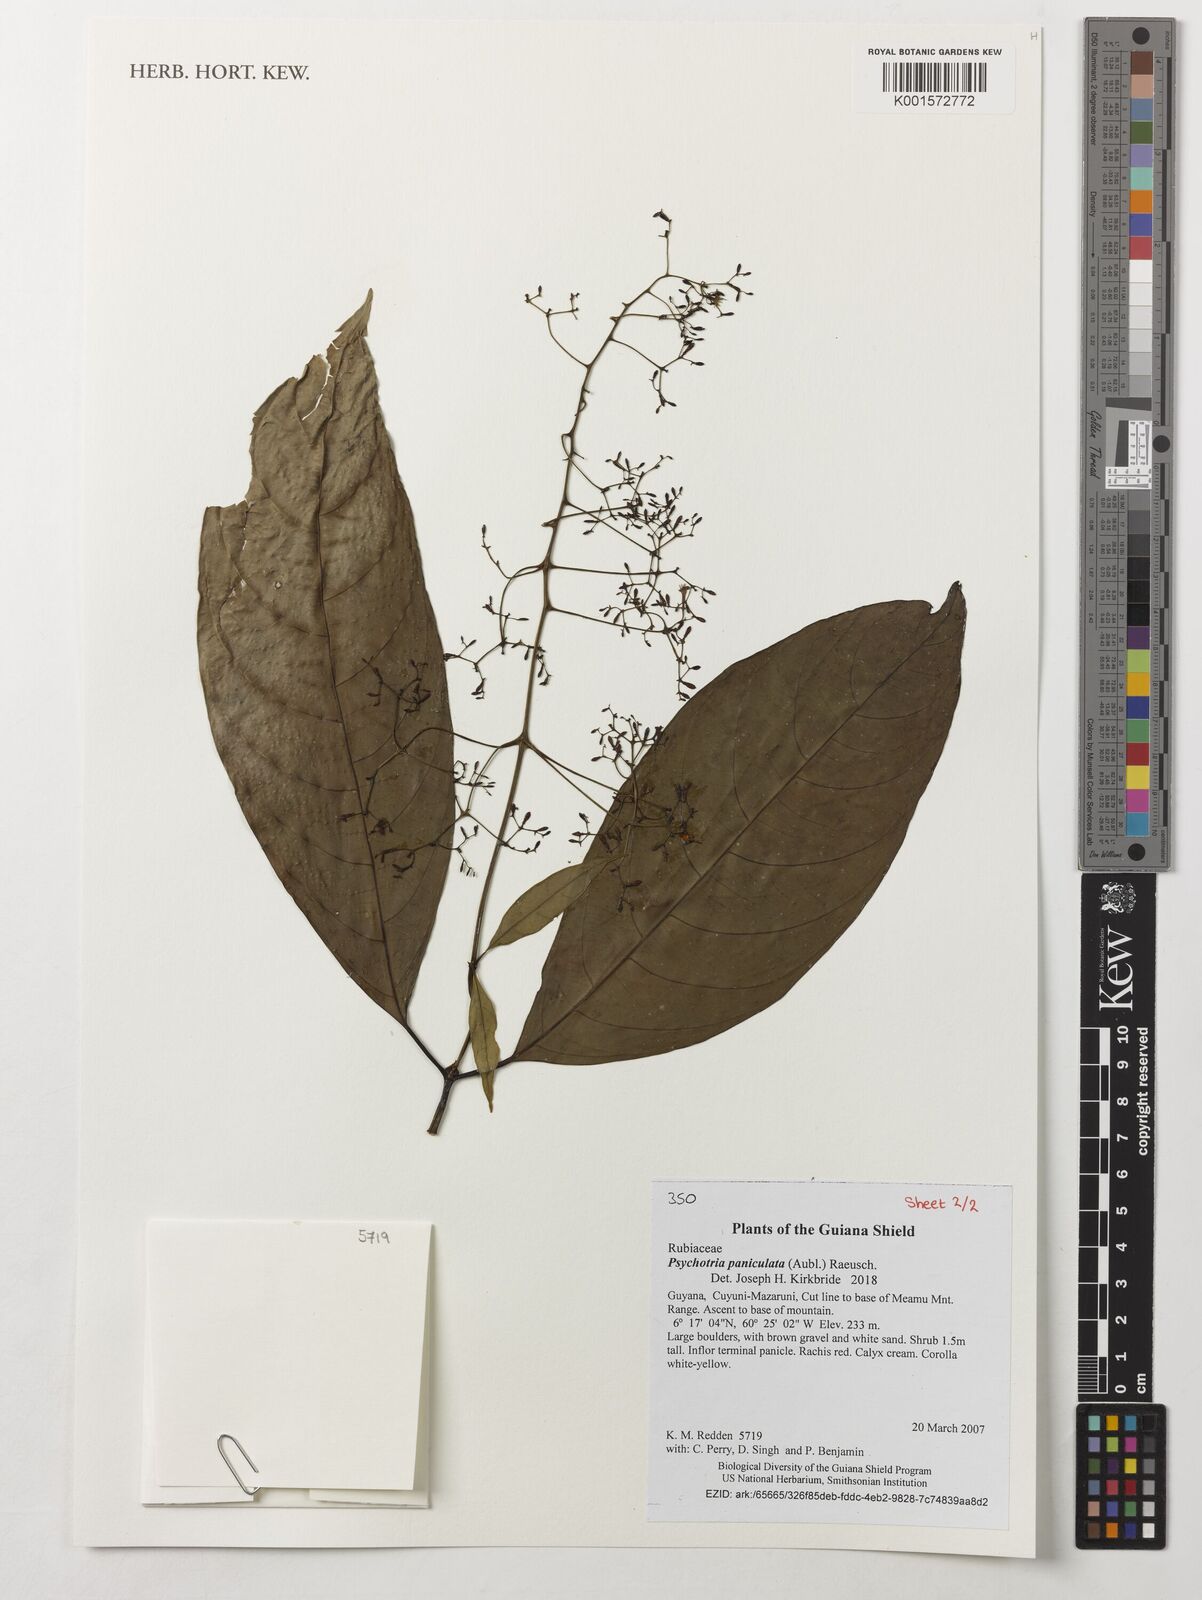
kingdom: Plantae
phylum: Tracheophyta
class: Magnoliopsida
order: Gentianales
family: Rubiaceae
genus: Palicourea
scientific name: Palicourea paniculata
